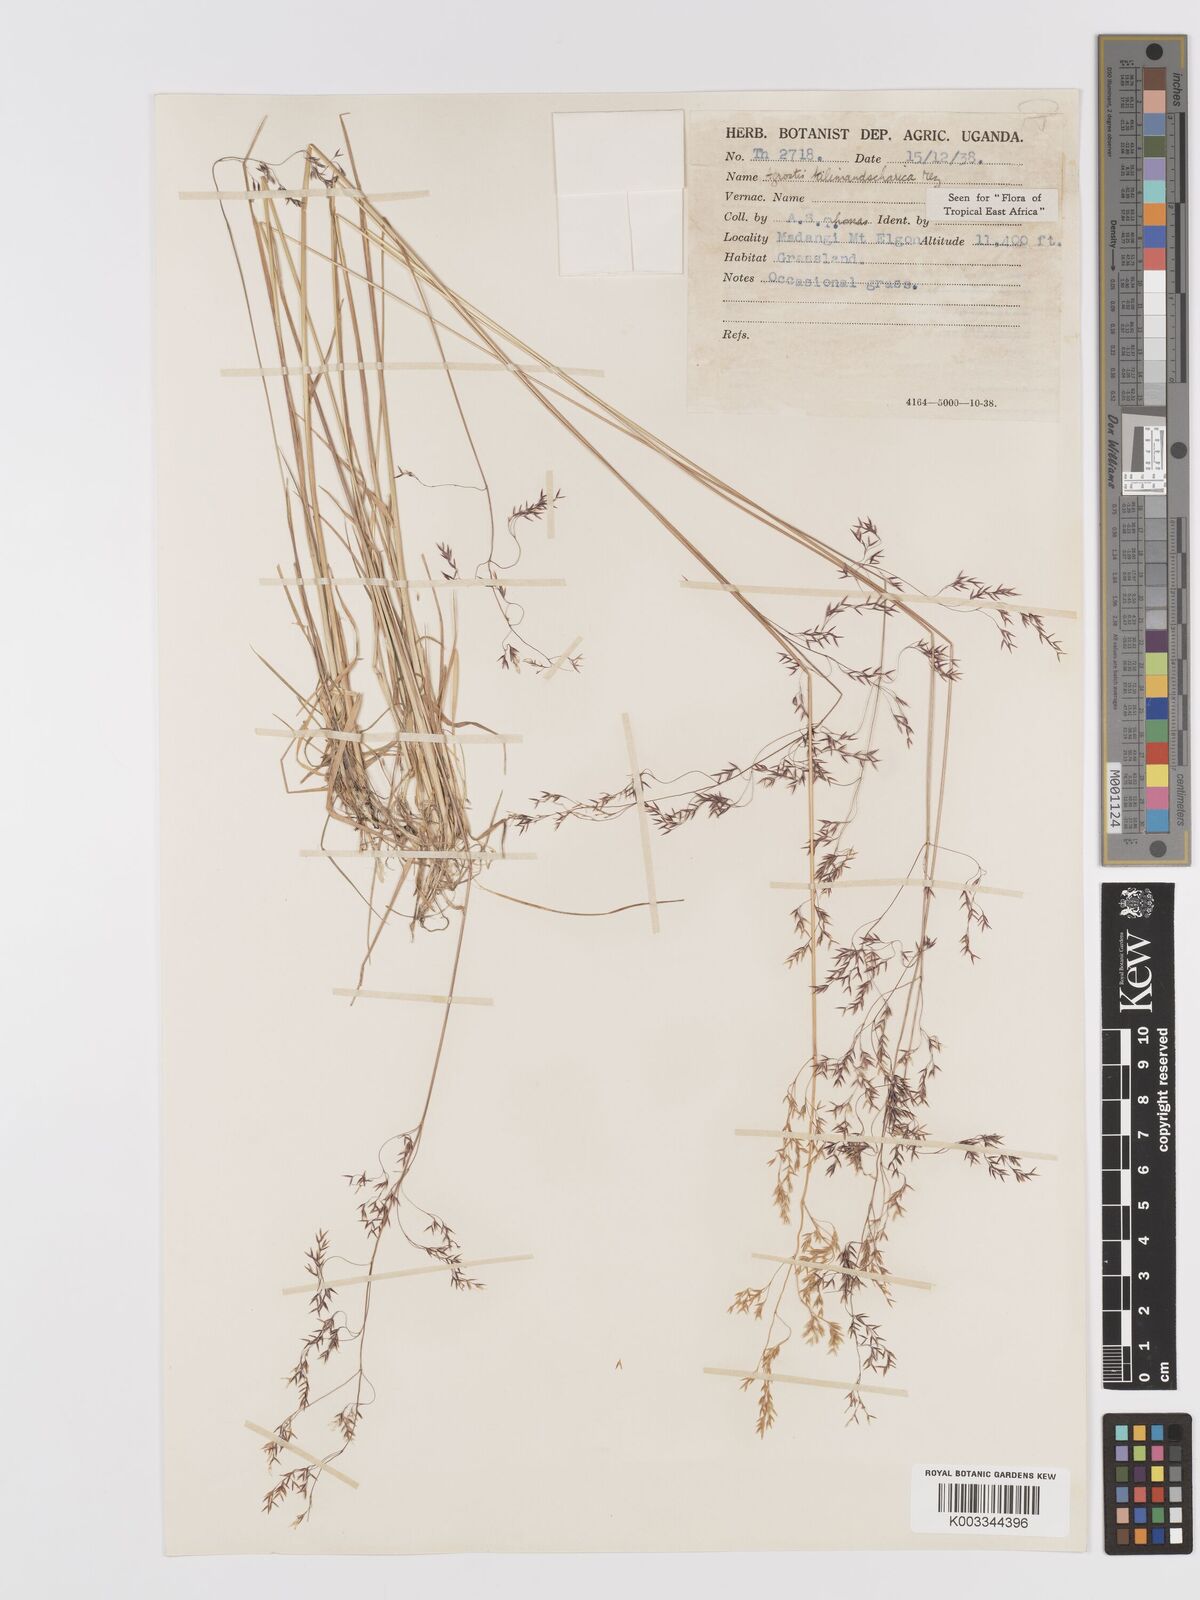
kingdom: Plantae
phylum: Tracheophyta
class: Liliopsida
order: Poales
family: Poaceae
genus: Agrostis
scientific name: Agrostis kilimandscharica
